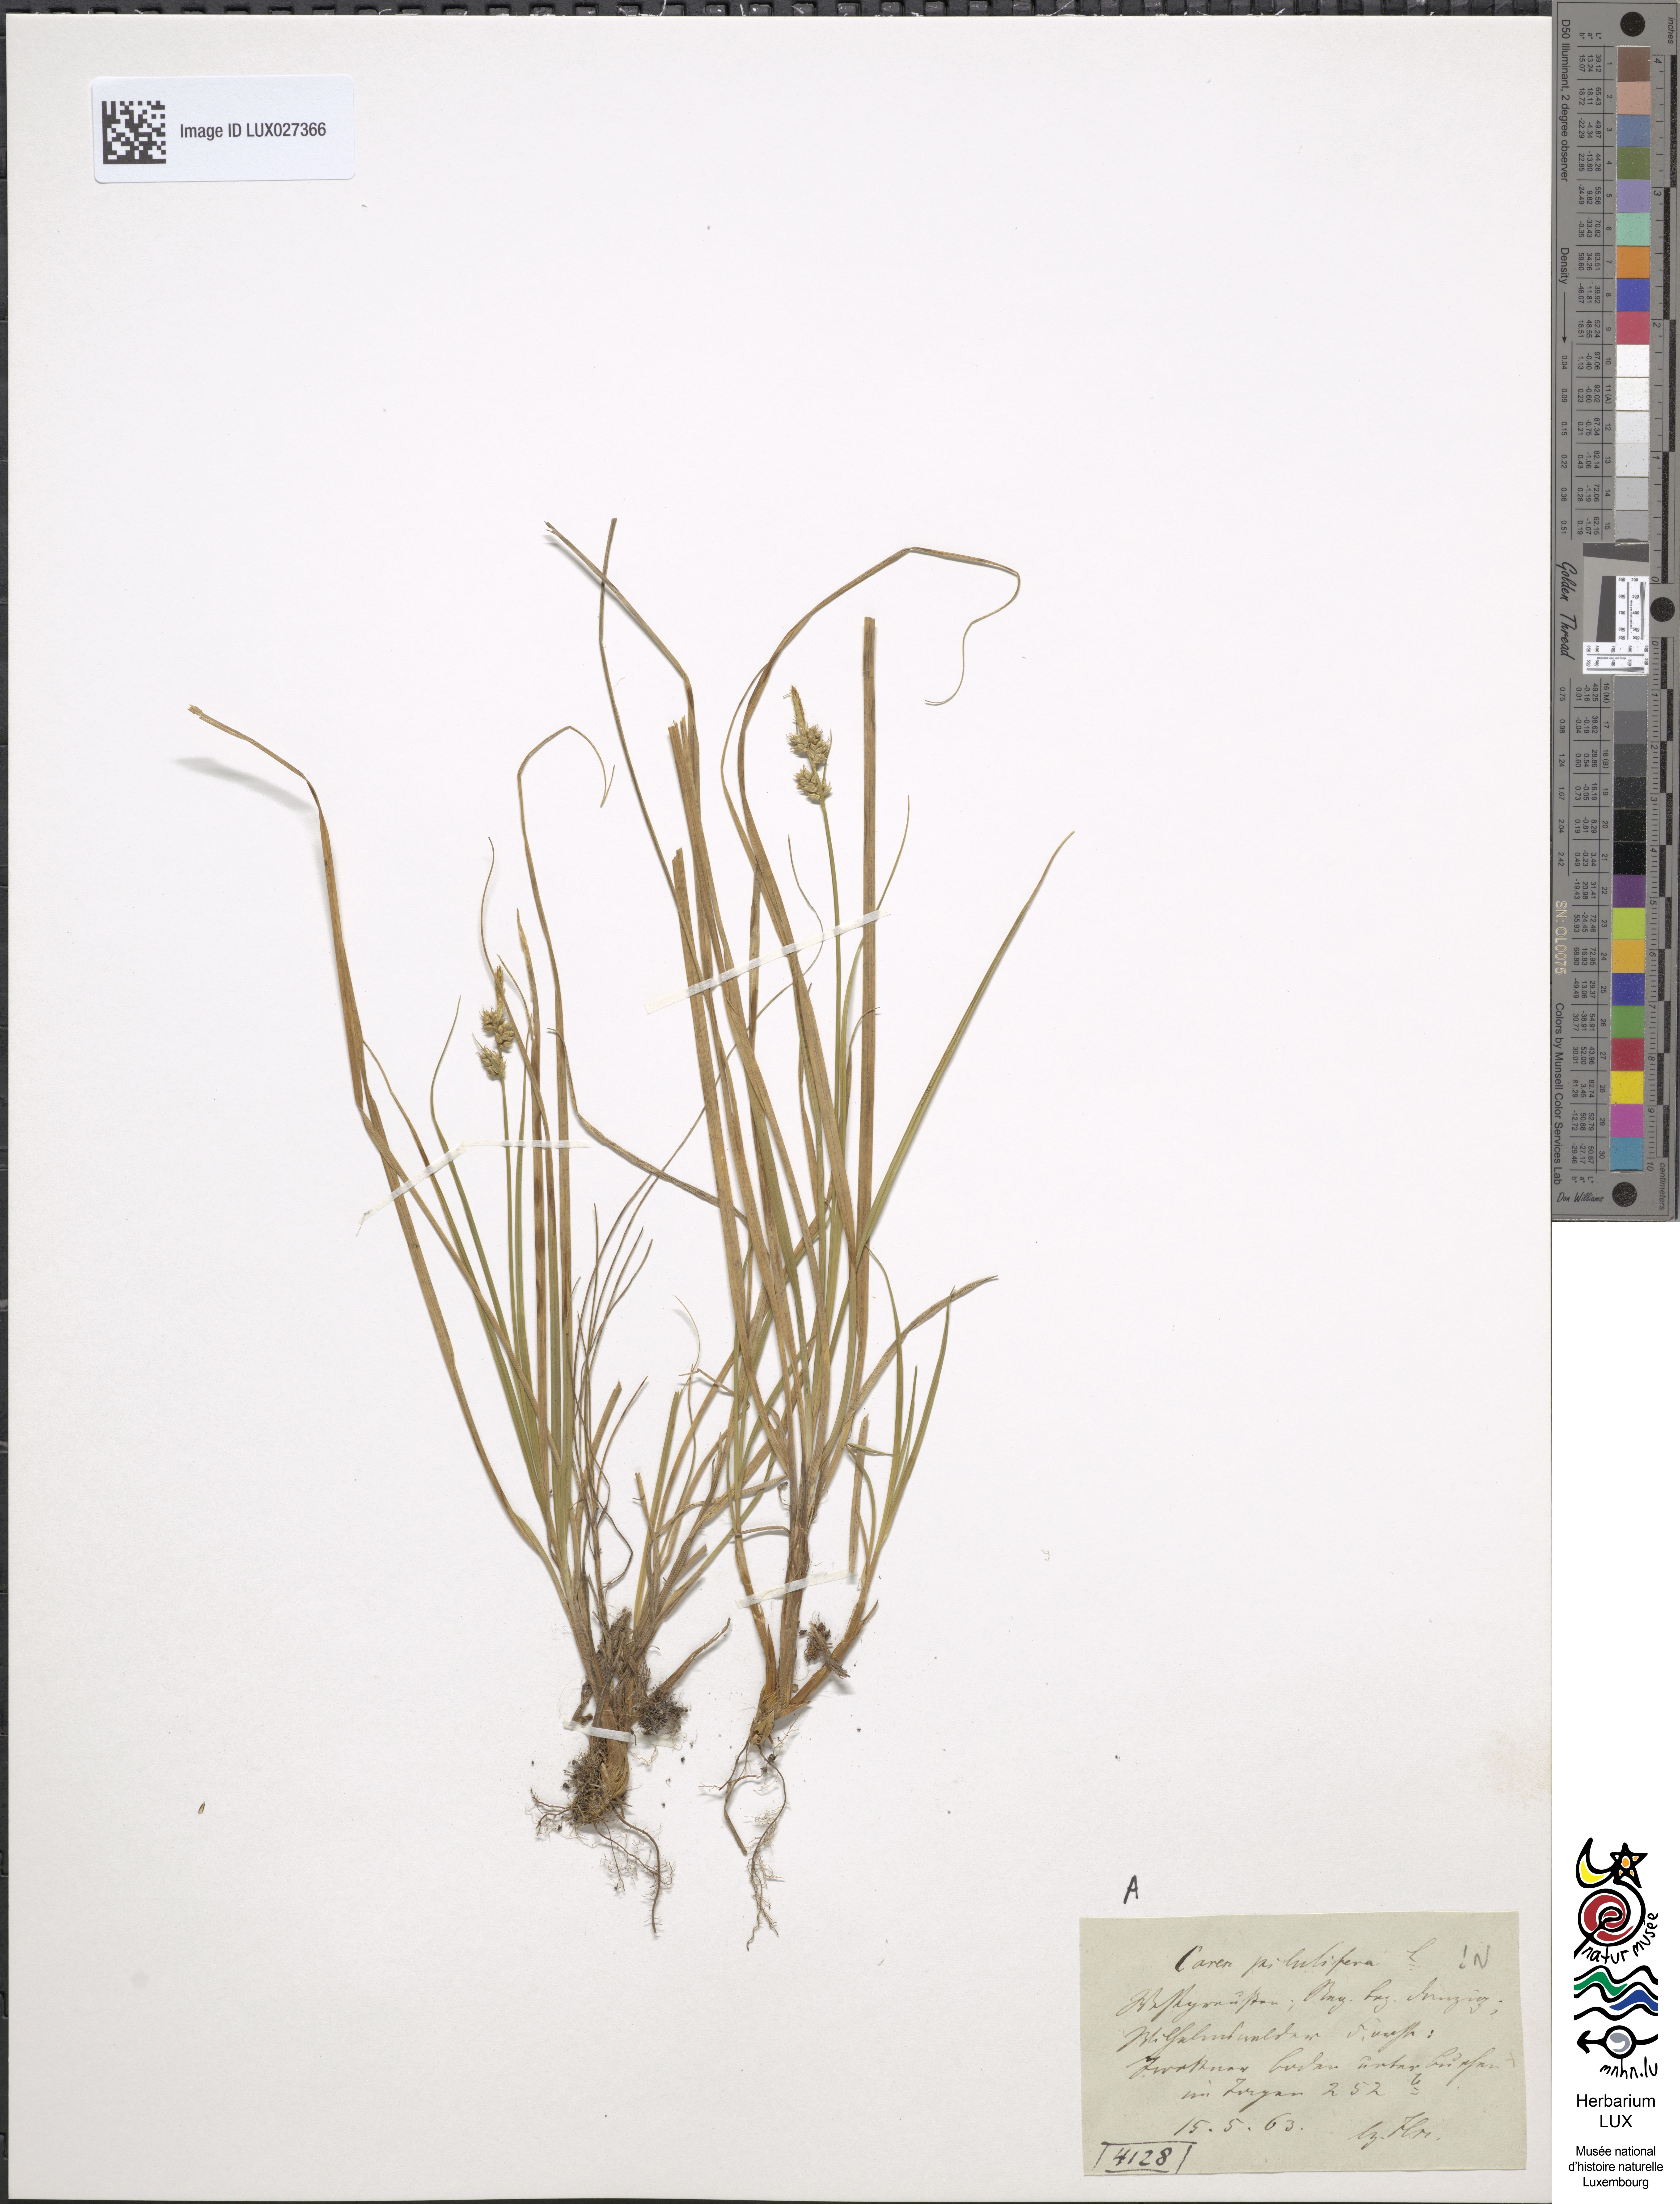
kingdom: Plantae
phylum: Tracheophyta
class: Liliopsida
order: Poales
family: Cyperaceae
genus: Carex
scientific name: Carex pilulifera
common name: Pill sedge
